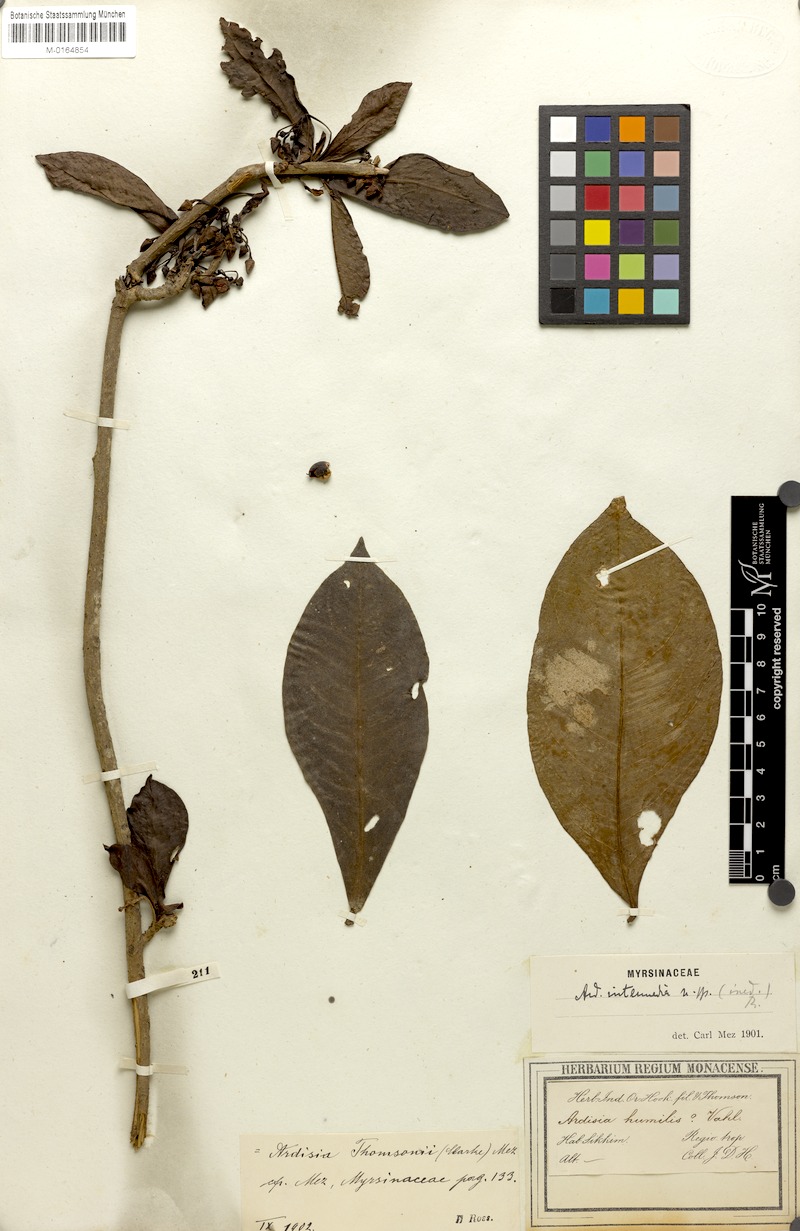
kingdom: Plantae
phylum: Tracheophyta
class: Magnoliopsida
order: Ericales
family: Primulaceae
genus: Ardisia
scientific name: Ardisia humilis
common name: Low shoebutton
